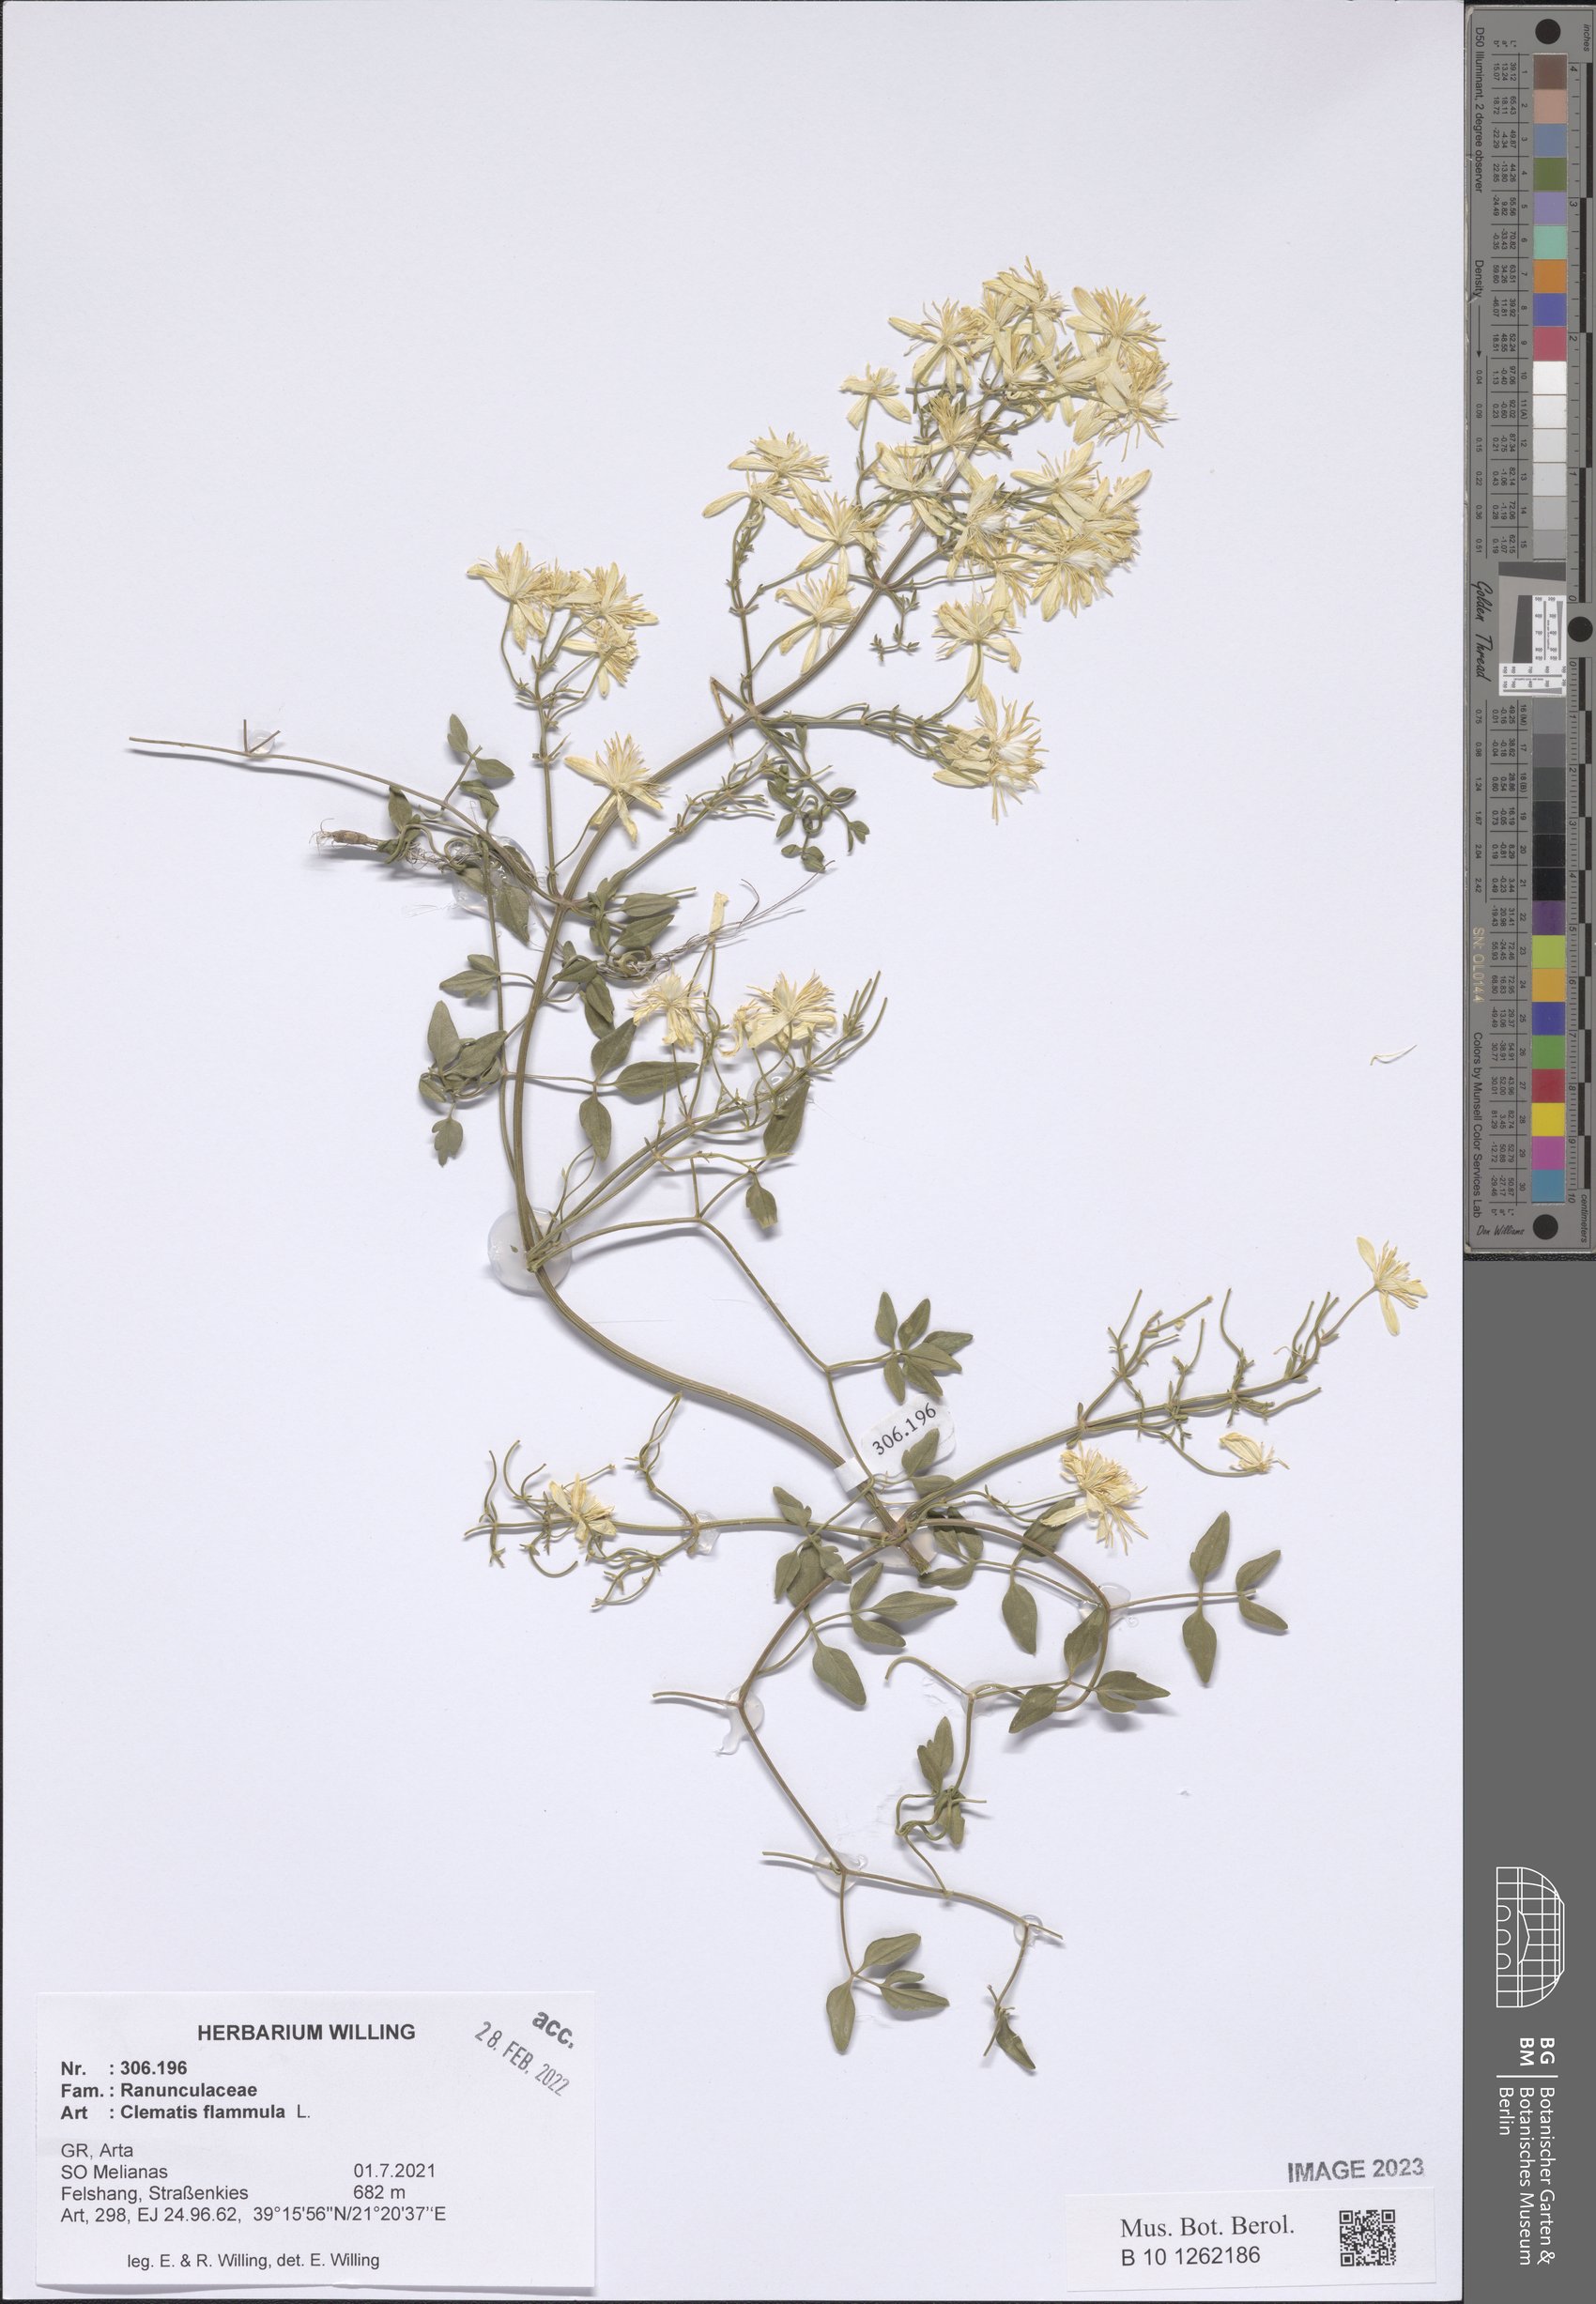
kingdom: Plantae
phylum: Tracheophyta
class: Magnoliopsida
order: Ranunculales
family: Ranunculaceae
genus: Clematis
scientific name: Clematis flammula
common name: Virgin's-bower
